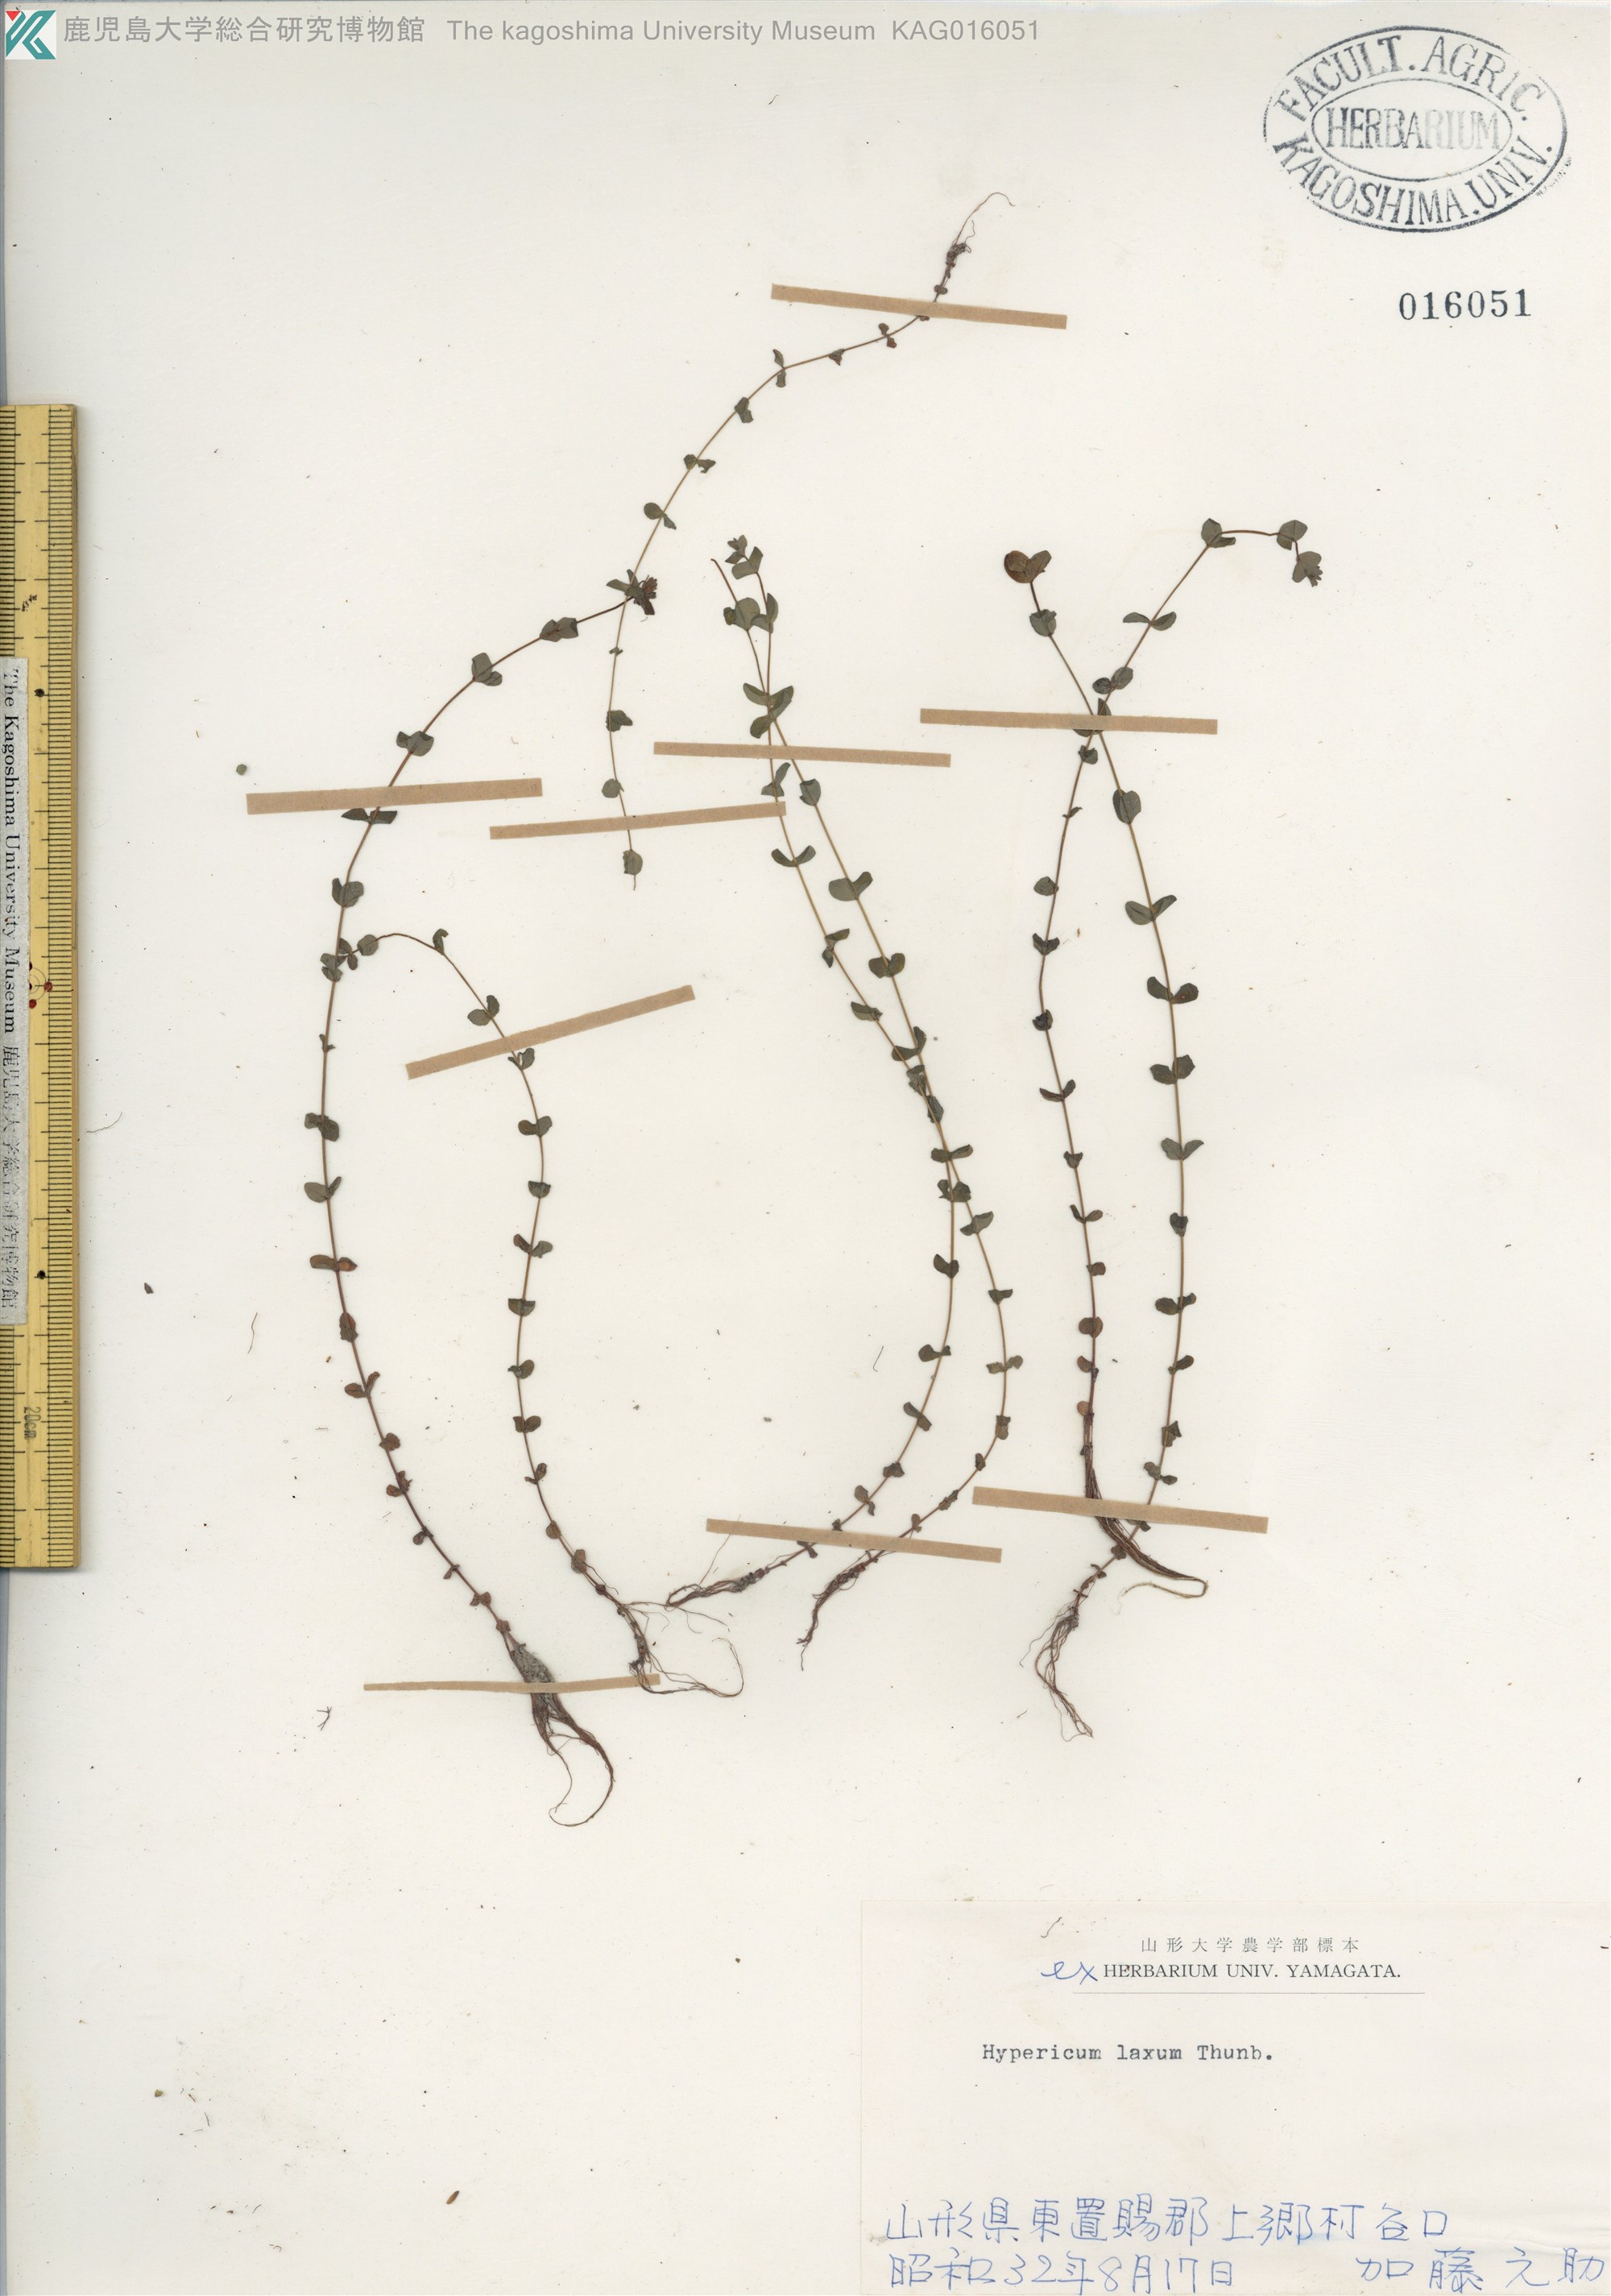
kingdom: Plantae
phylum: Tracheophyta
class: Magnoliopsida
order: Malpighiales
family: Hypericaceae
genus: Hypericum
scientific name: Hypericum japonicum
